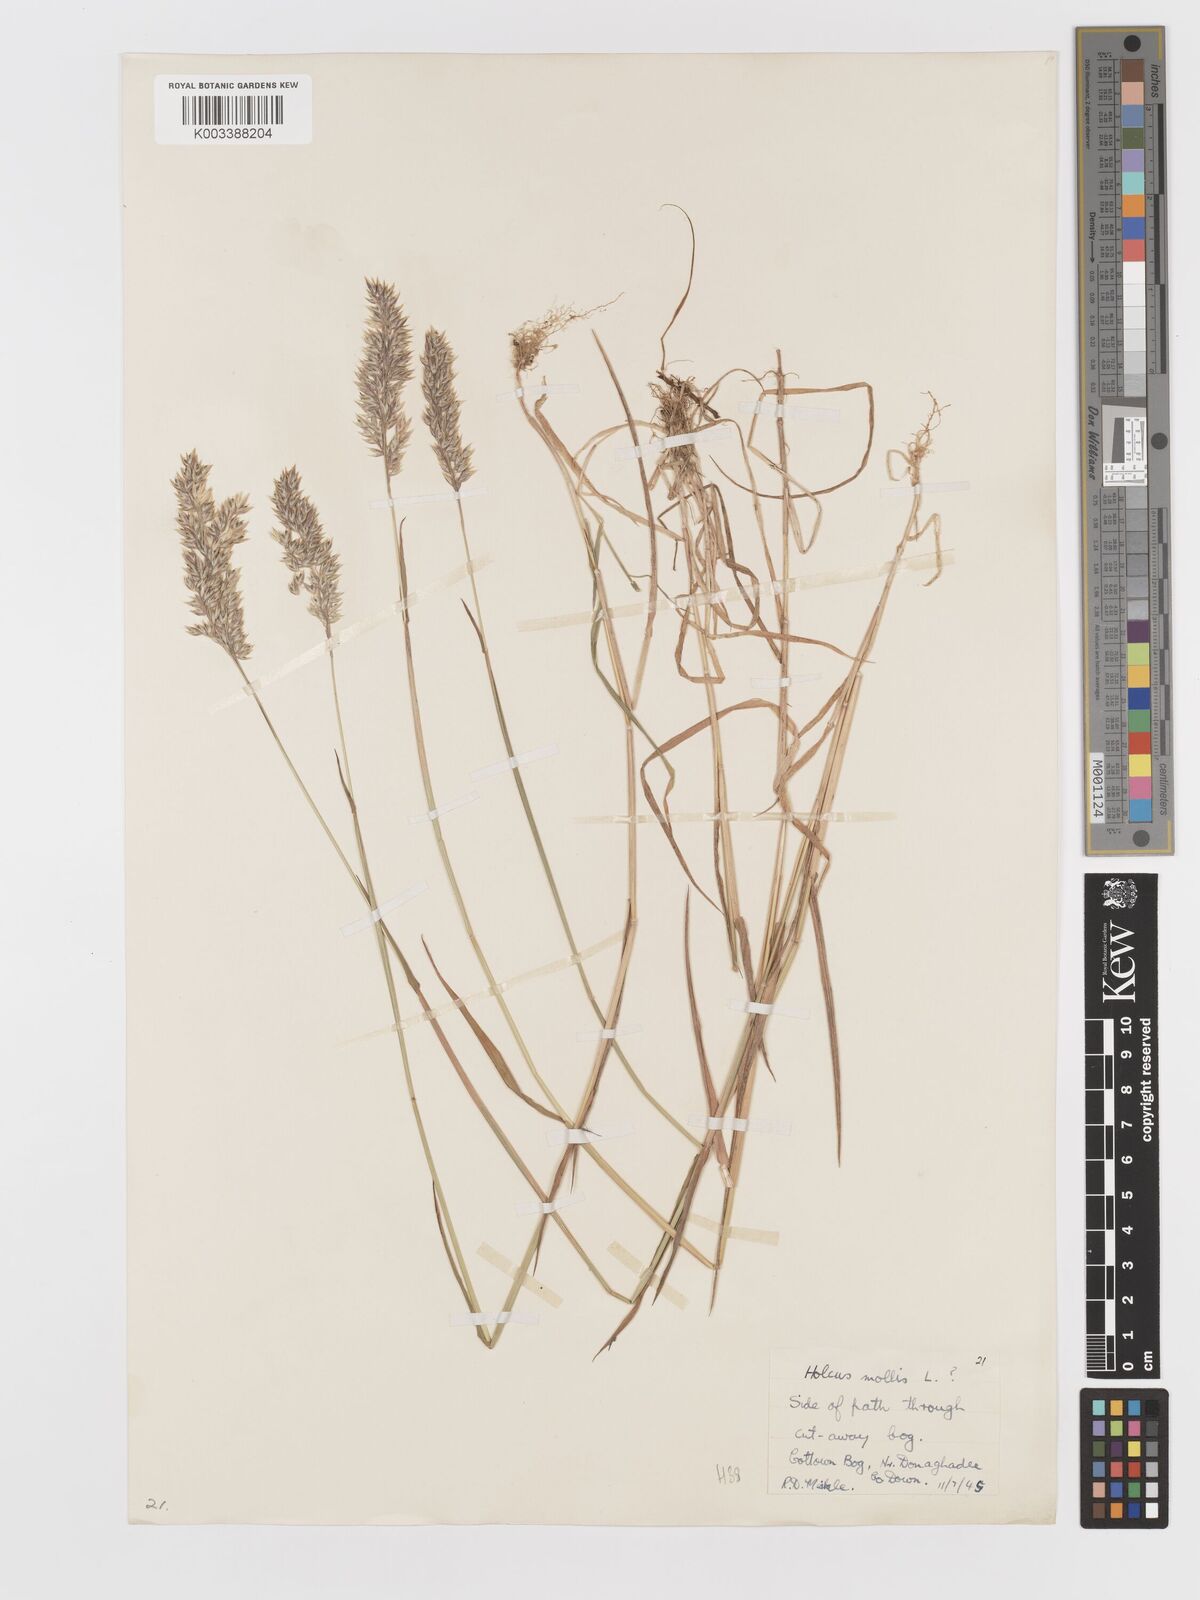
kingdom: Plantae
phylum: Tracheophyta
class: Liliopsida
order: Poales
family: Poaceae
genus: Holcus
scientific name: Holcus mollis
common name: Creeping velvetgrass
